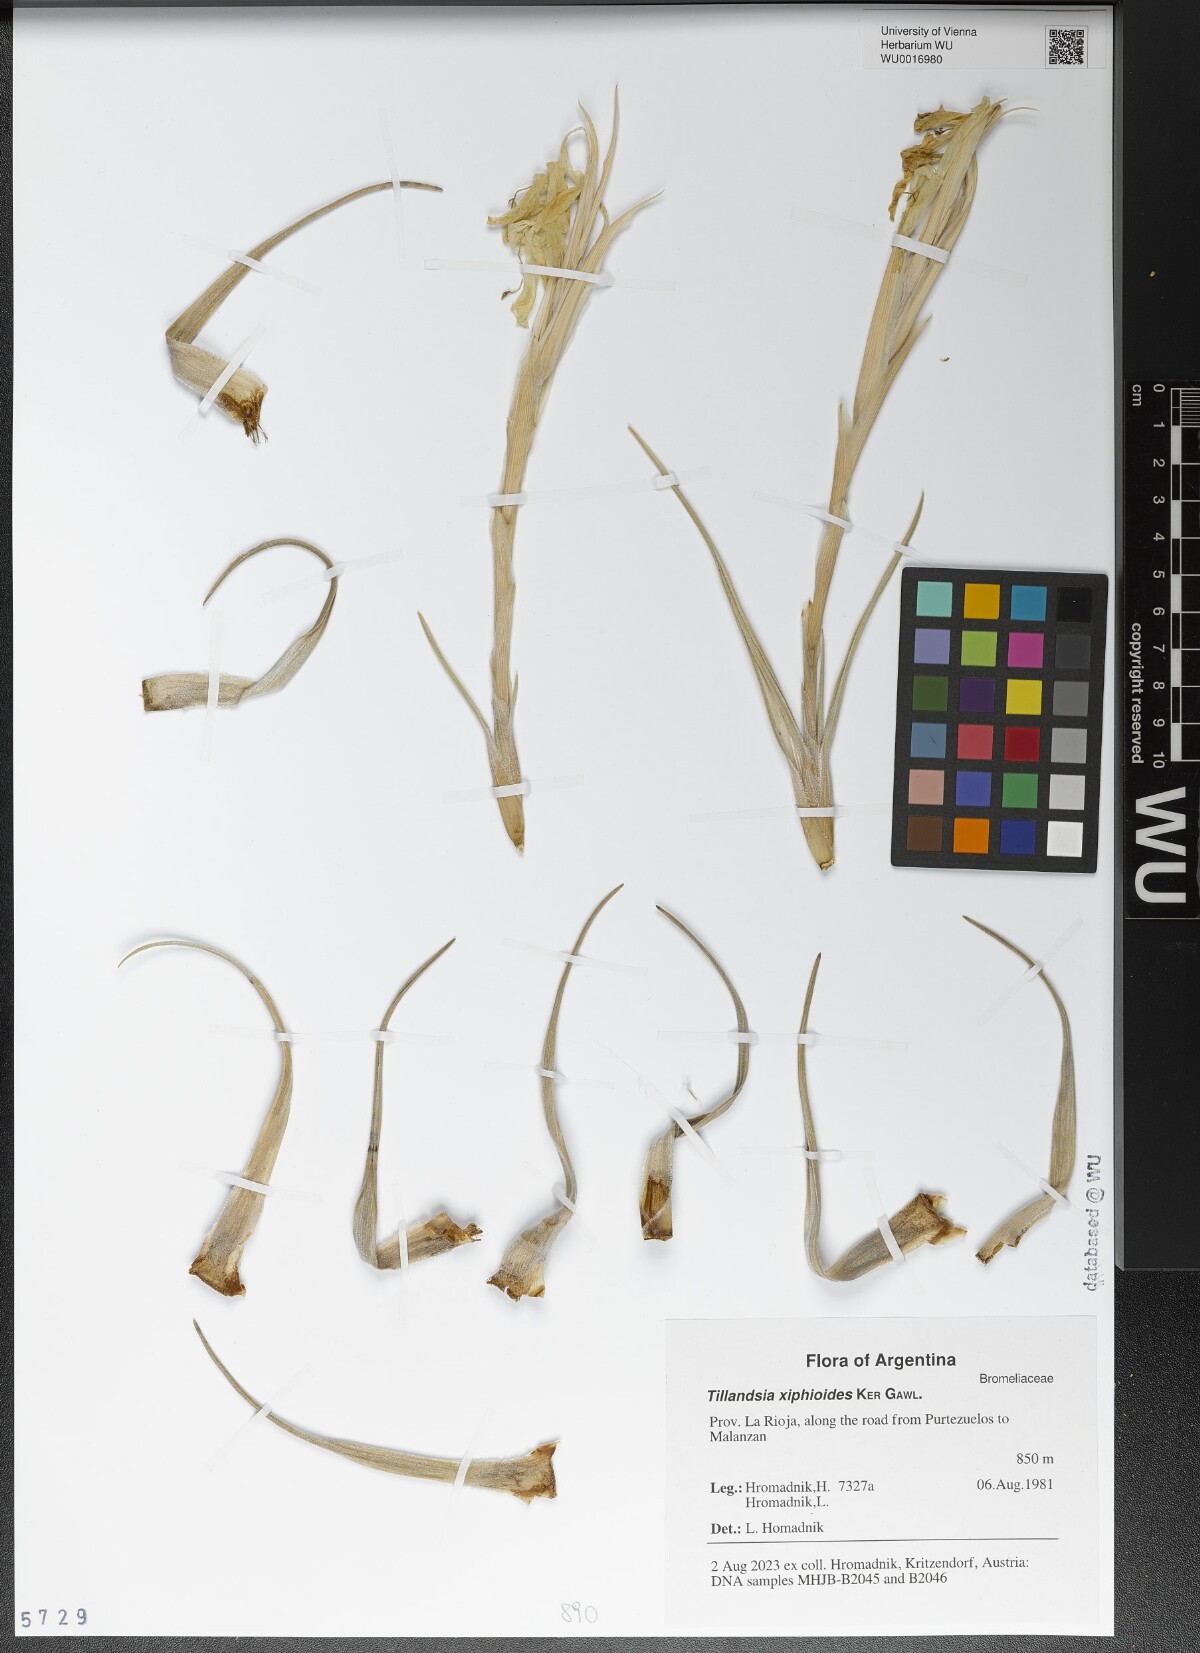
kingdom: Plantae
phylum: Tracheophyta
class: Liliopsida
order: Poales
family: Bromeliaceae
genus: Tillandsia
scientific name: Tillandsia xiphioides
